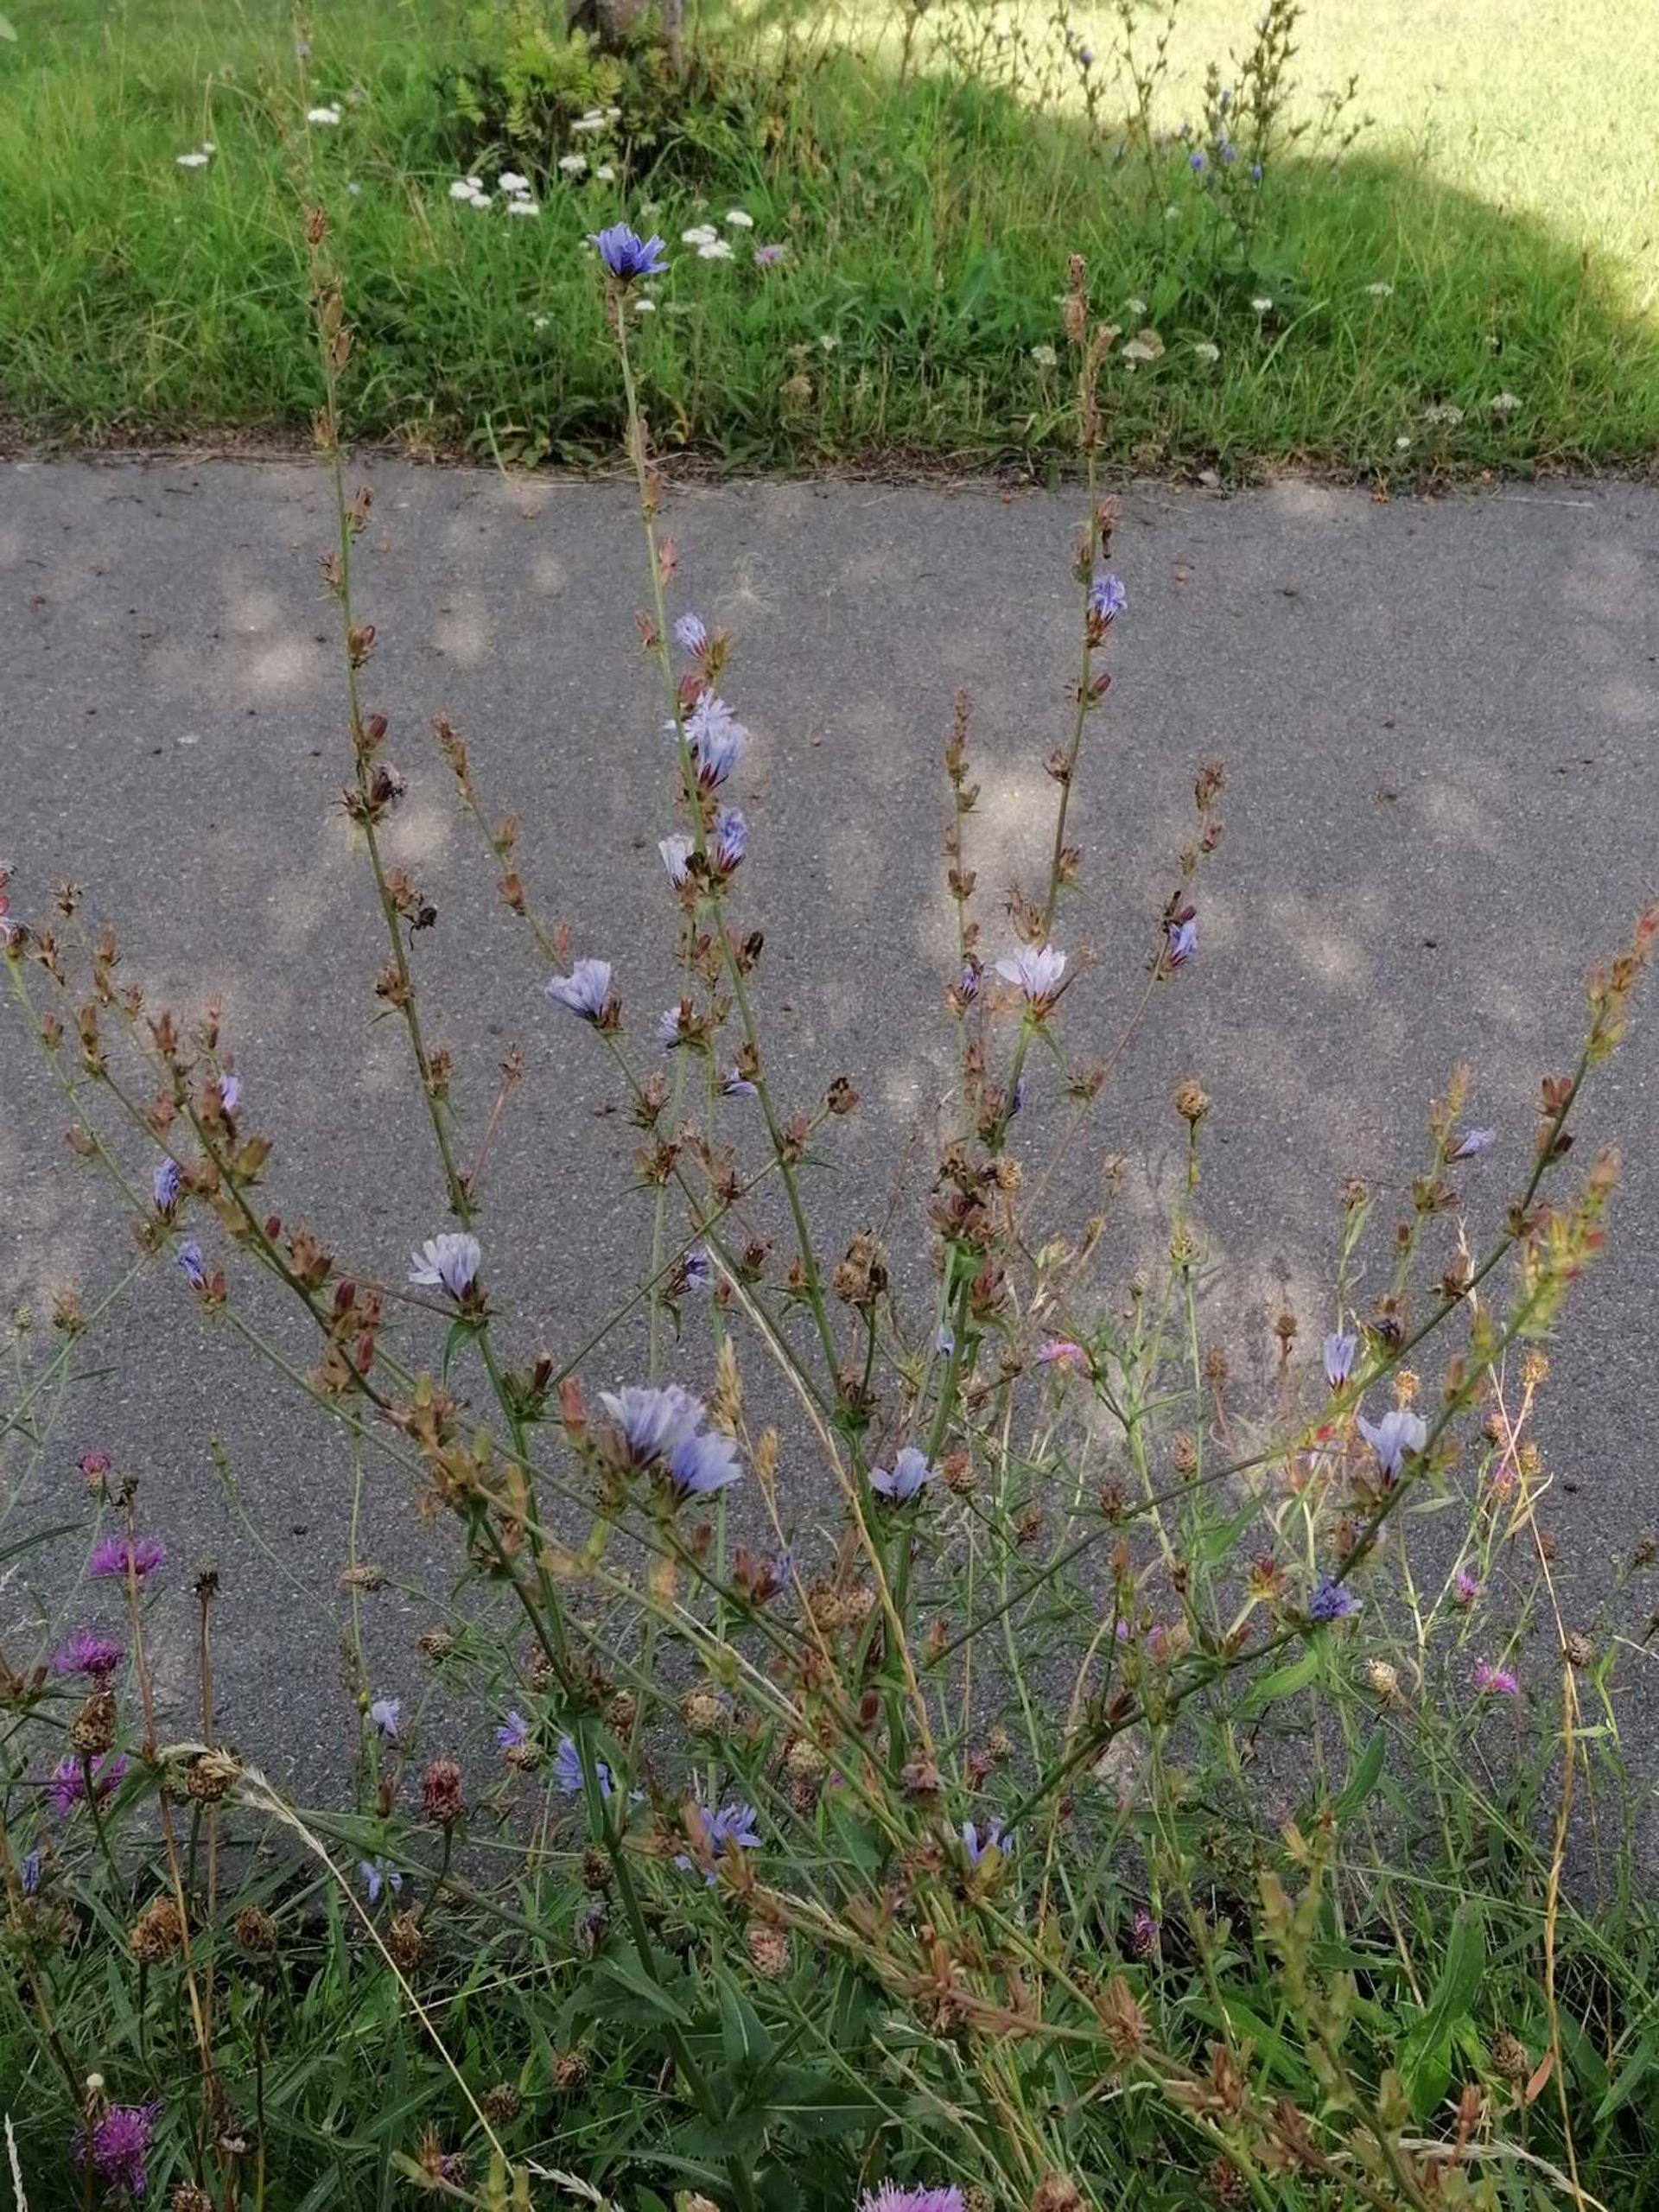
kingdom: Plantae
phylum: Tracheophyta
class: Magnoliopsida
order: Asterales
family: Asteraceae
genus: Cichorium
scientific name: Cichorium intybus
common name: Cikorie
